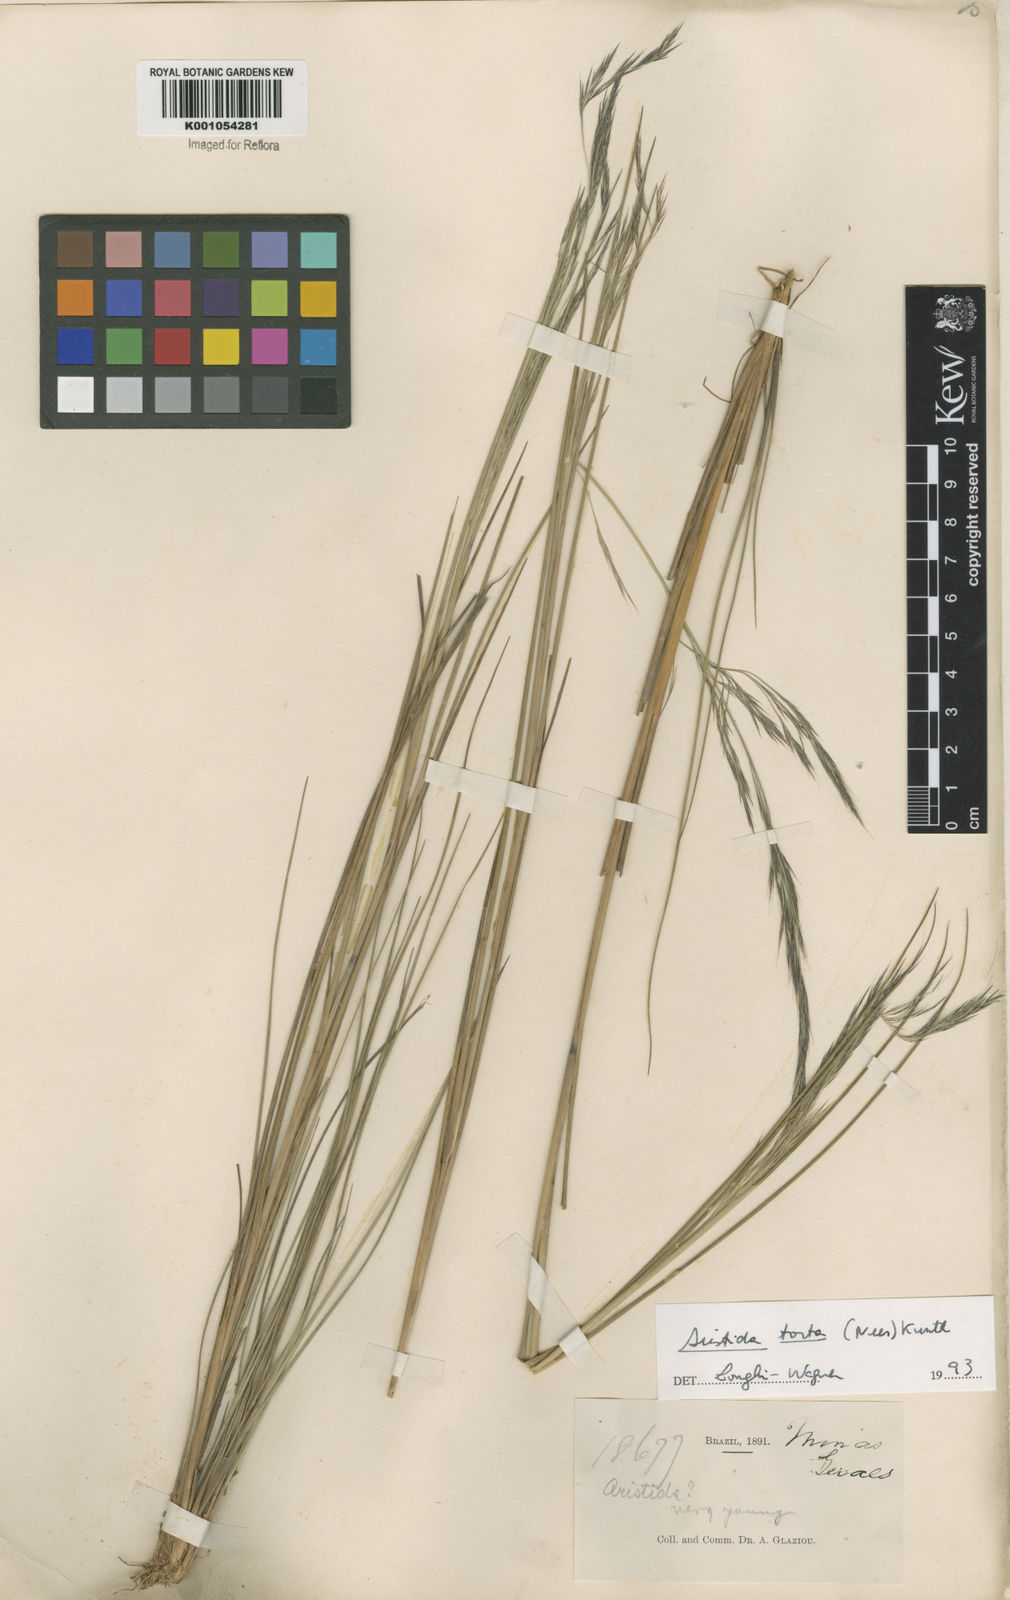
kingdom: Plantae
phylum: Tracheophyta
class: Liliopsida
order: Poales
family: Poaceae
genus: Aristida
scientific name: Aristida torta
